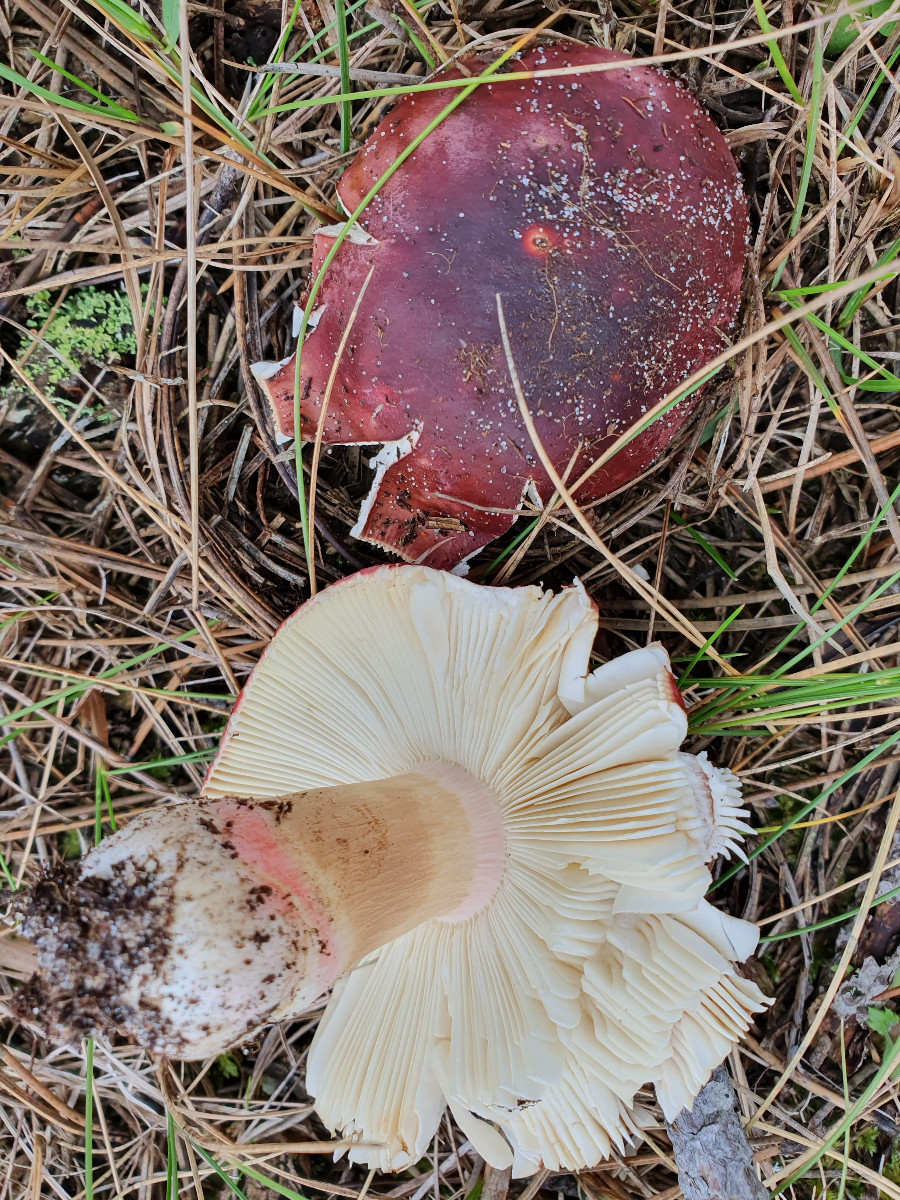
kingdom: Fungi
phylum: Basidiomycota
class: Agaricomycetes
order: Russulales
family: Russulaceae
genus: Russula
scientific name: Russula xerampelina
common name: hummer-skørhat
